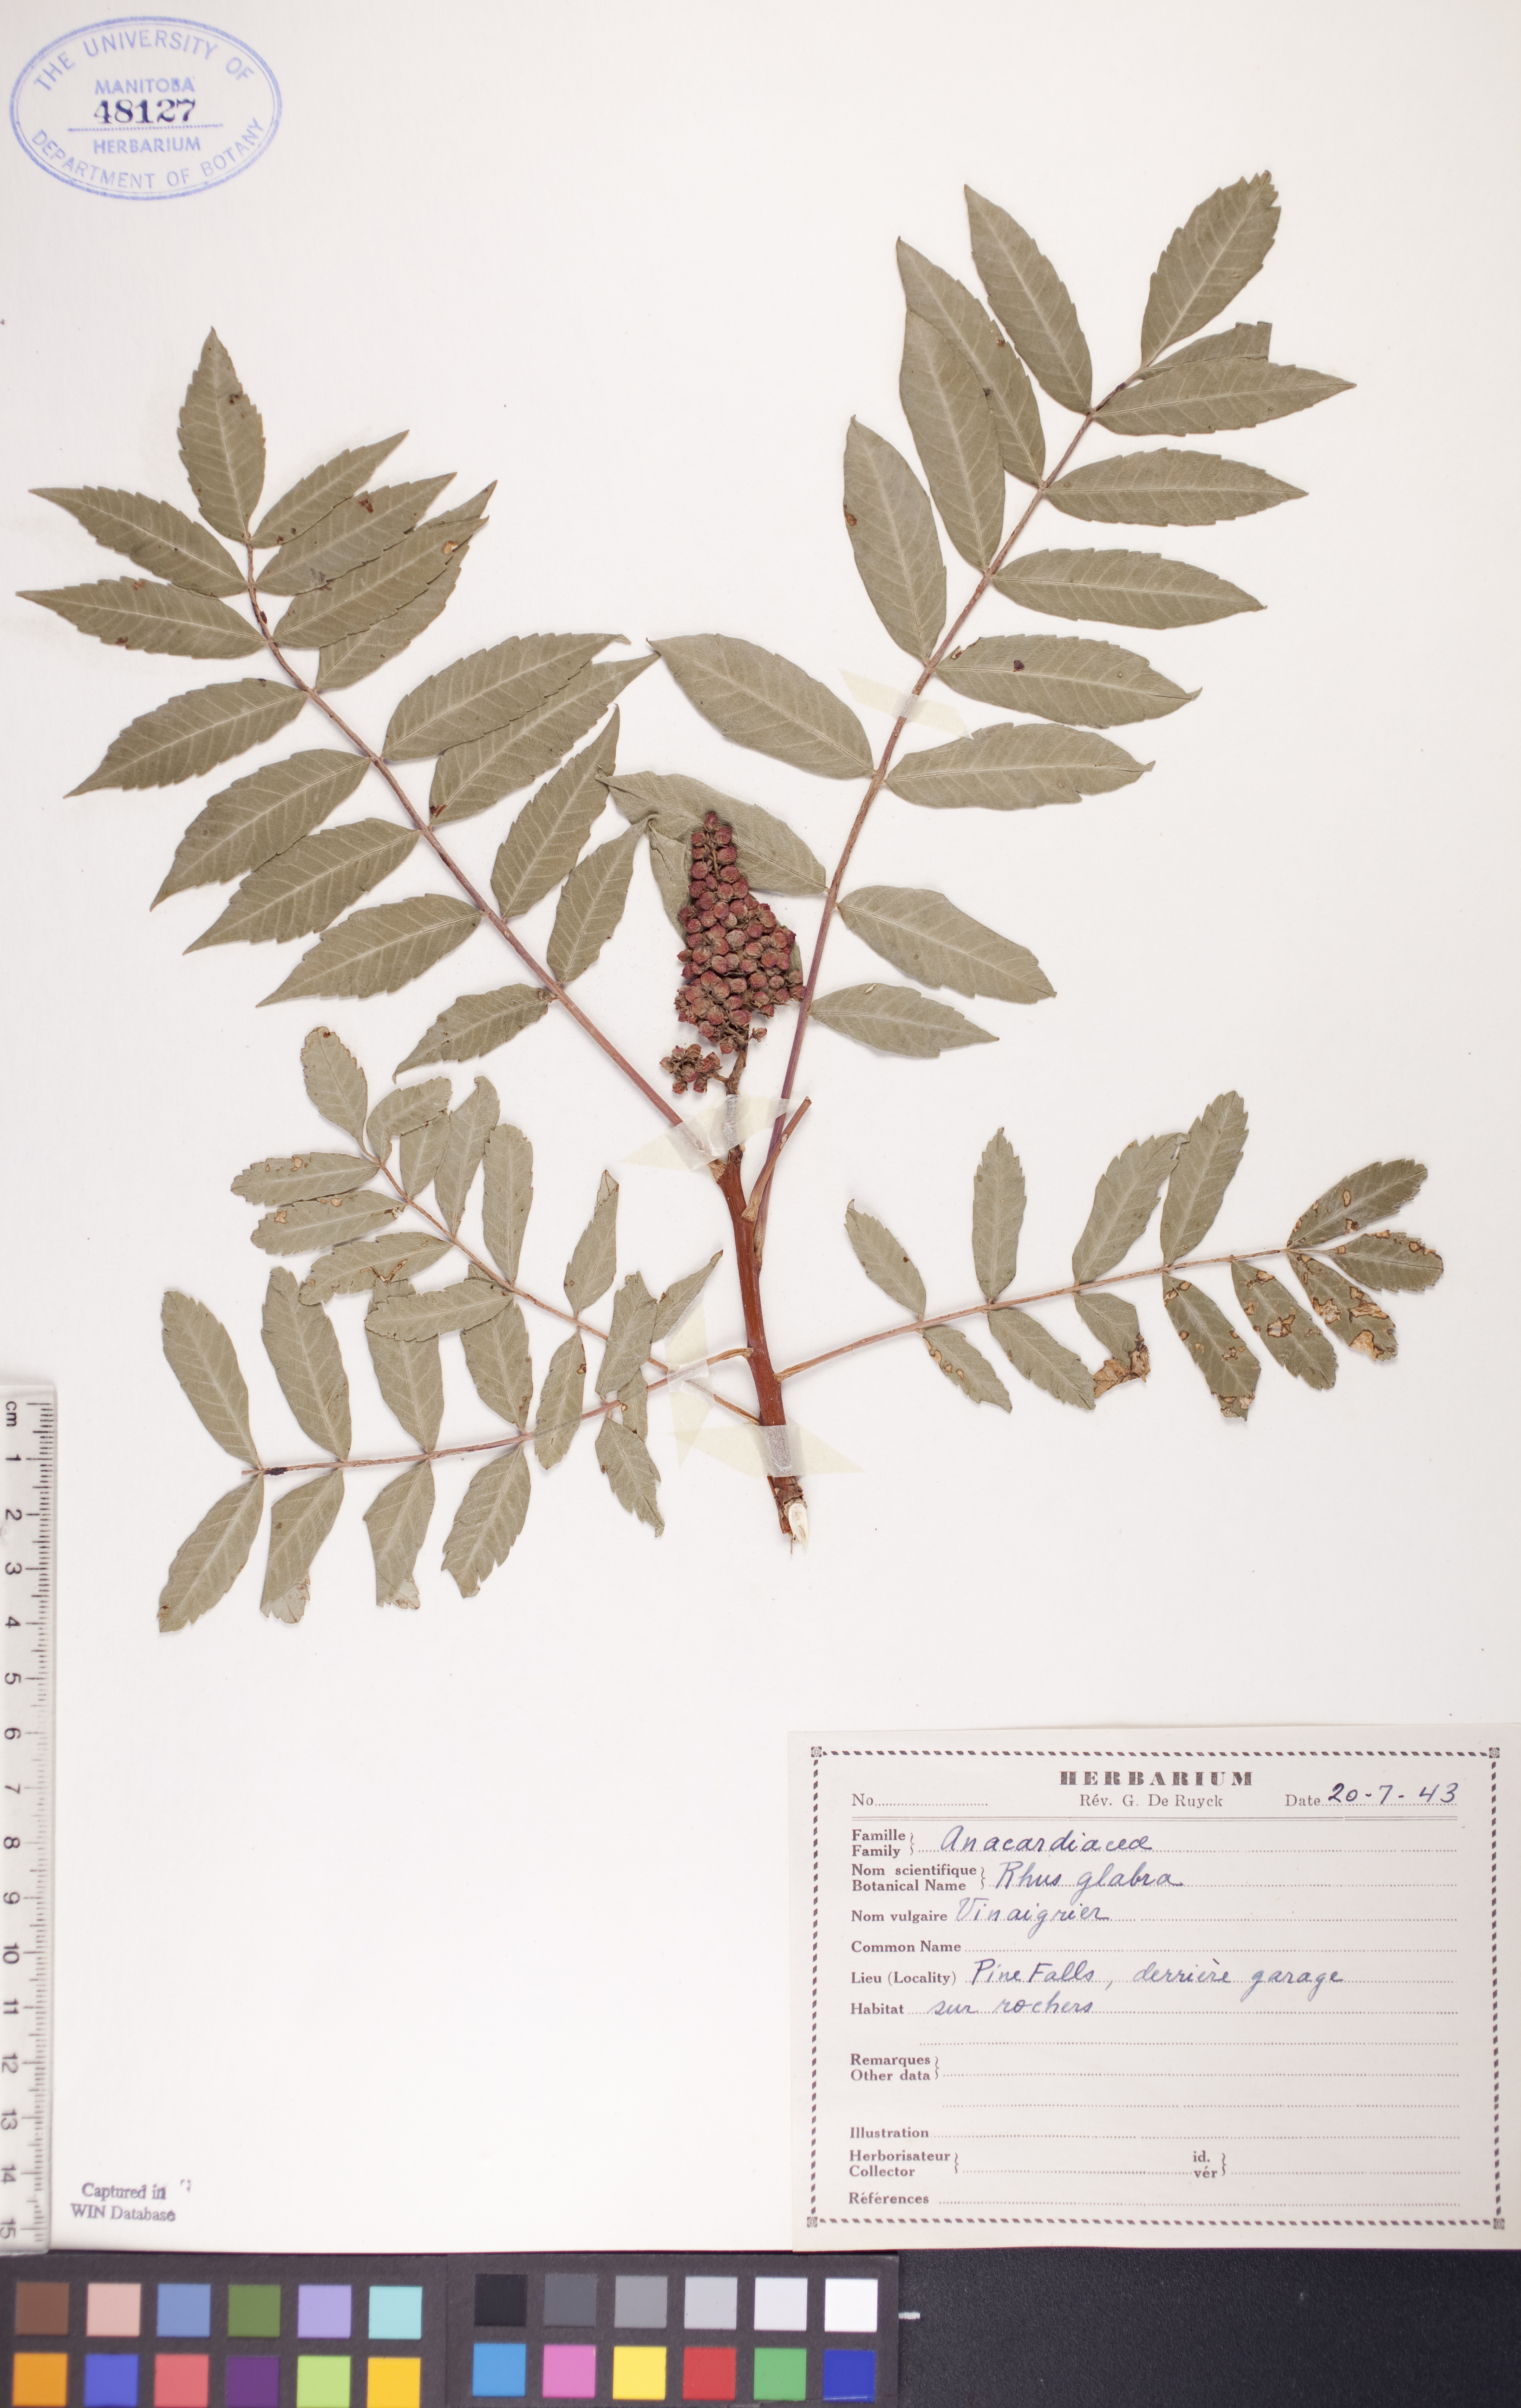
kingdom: Plantae
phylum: Tracheophyta
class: Magnoliopsida
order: Sapindales
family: Anacardiaceae
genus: Rhus
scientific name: Rhus glabra
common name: Scarlet sumac
